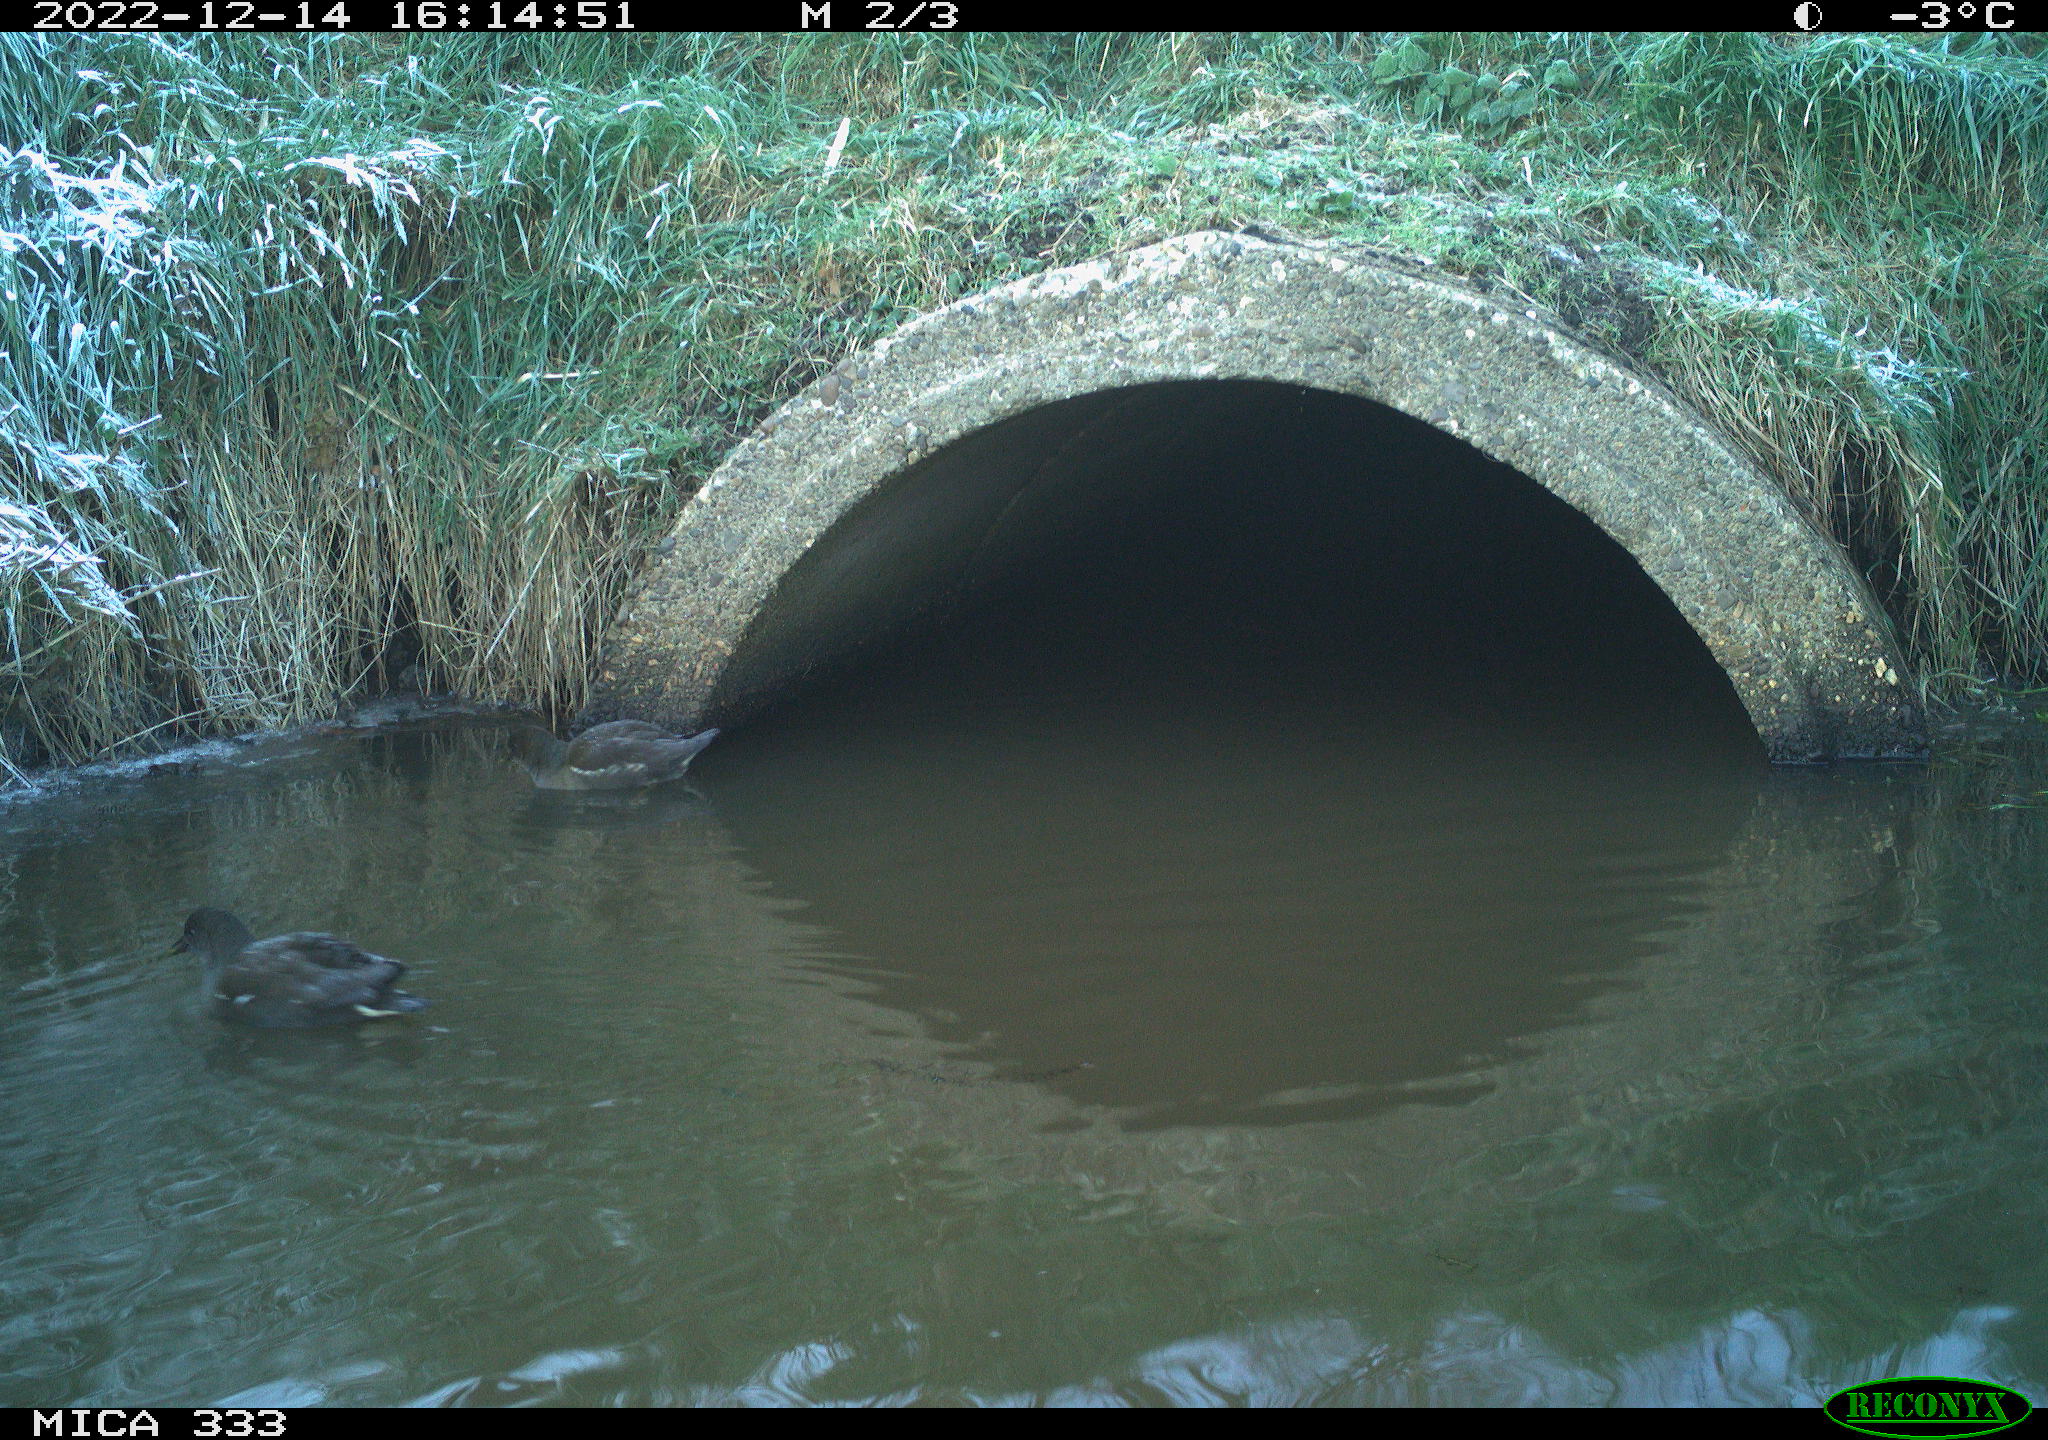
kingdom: Animalia
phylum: Chordata
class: Aves
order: Anseriformes
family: Anatidae
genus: Anas
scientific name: Anas
